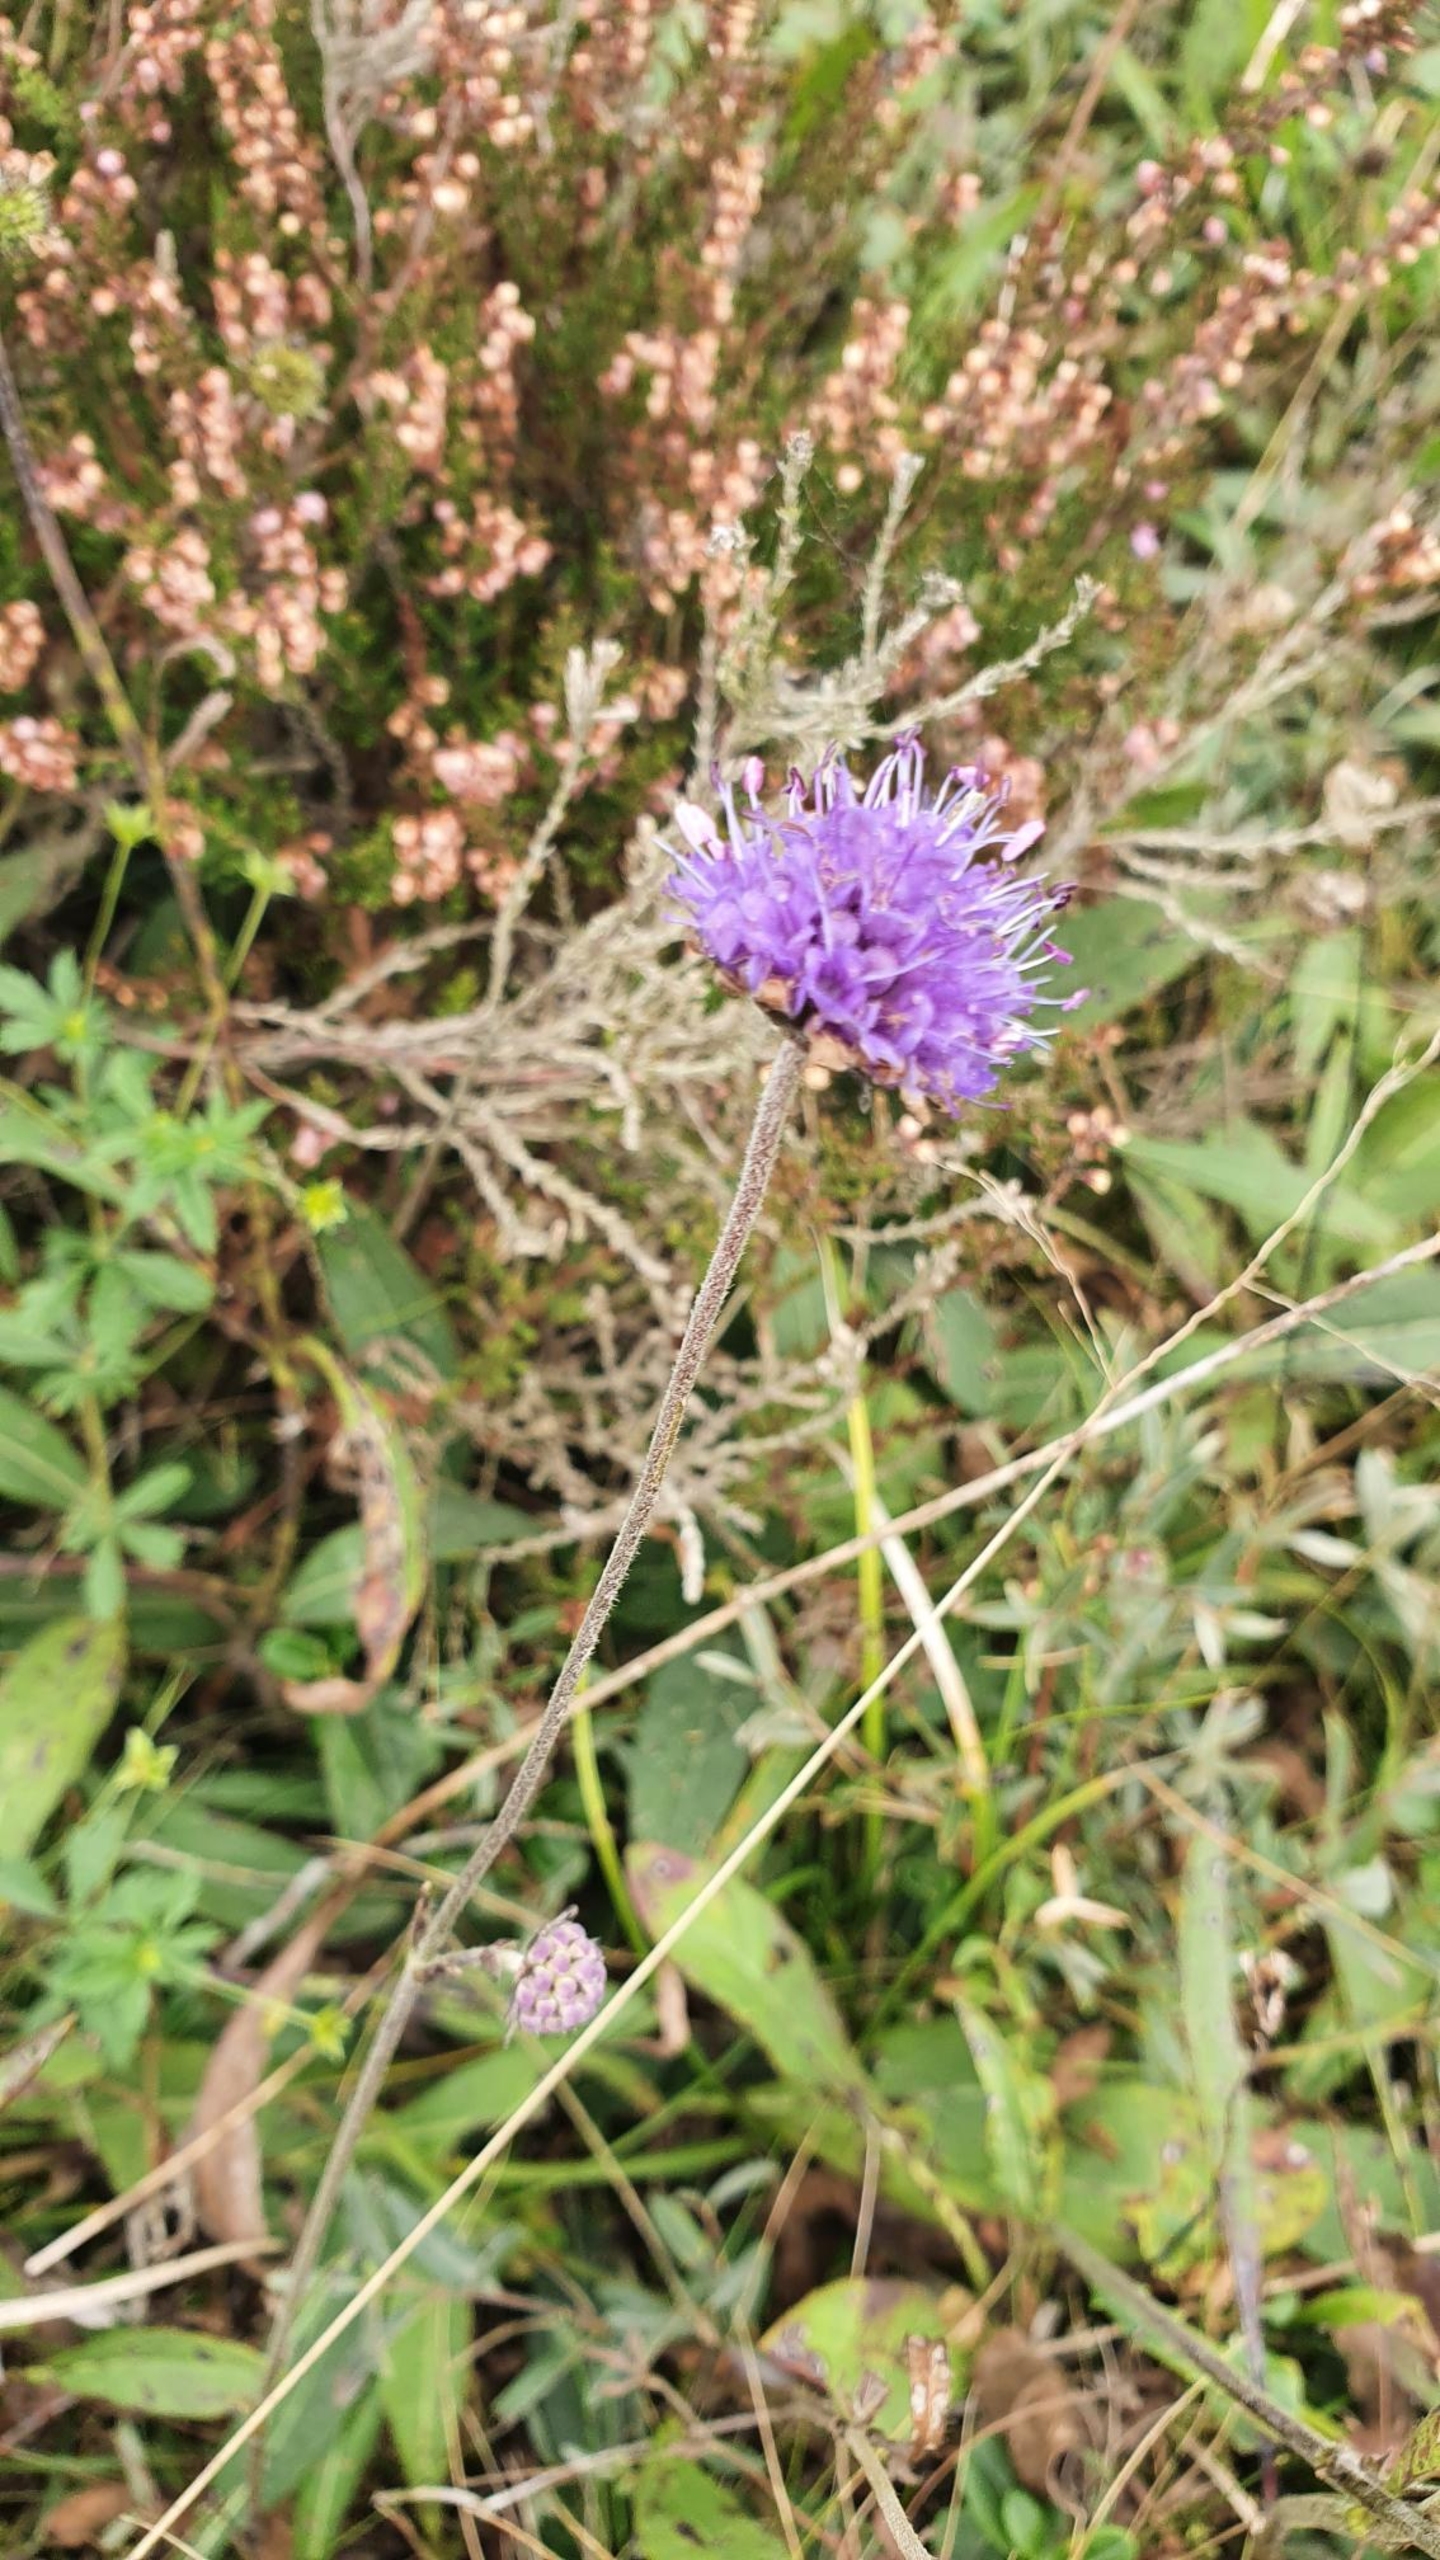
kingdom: Plantae
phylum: Tracheophyta
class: Magnoliopsida
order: Dipsacales
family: Caprifoliaceae
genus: Succisa
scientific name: Succisa pratensis
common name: Djævelsbid
